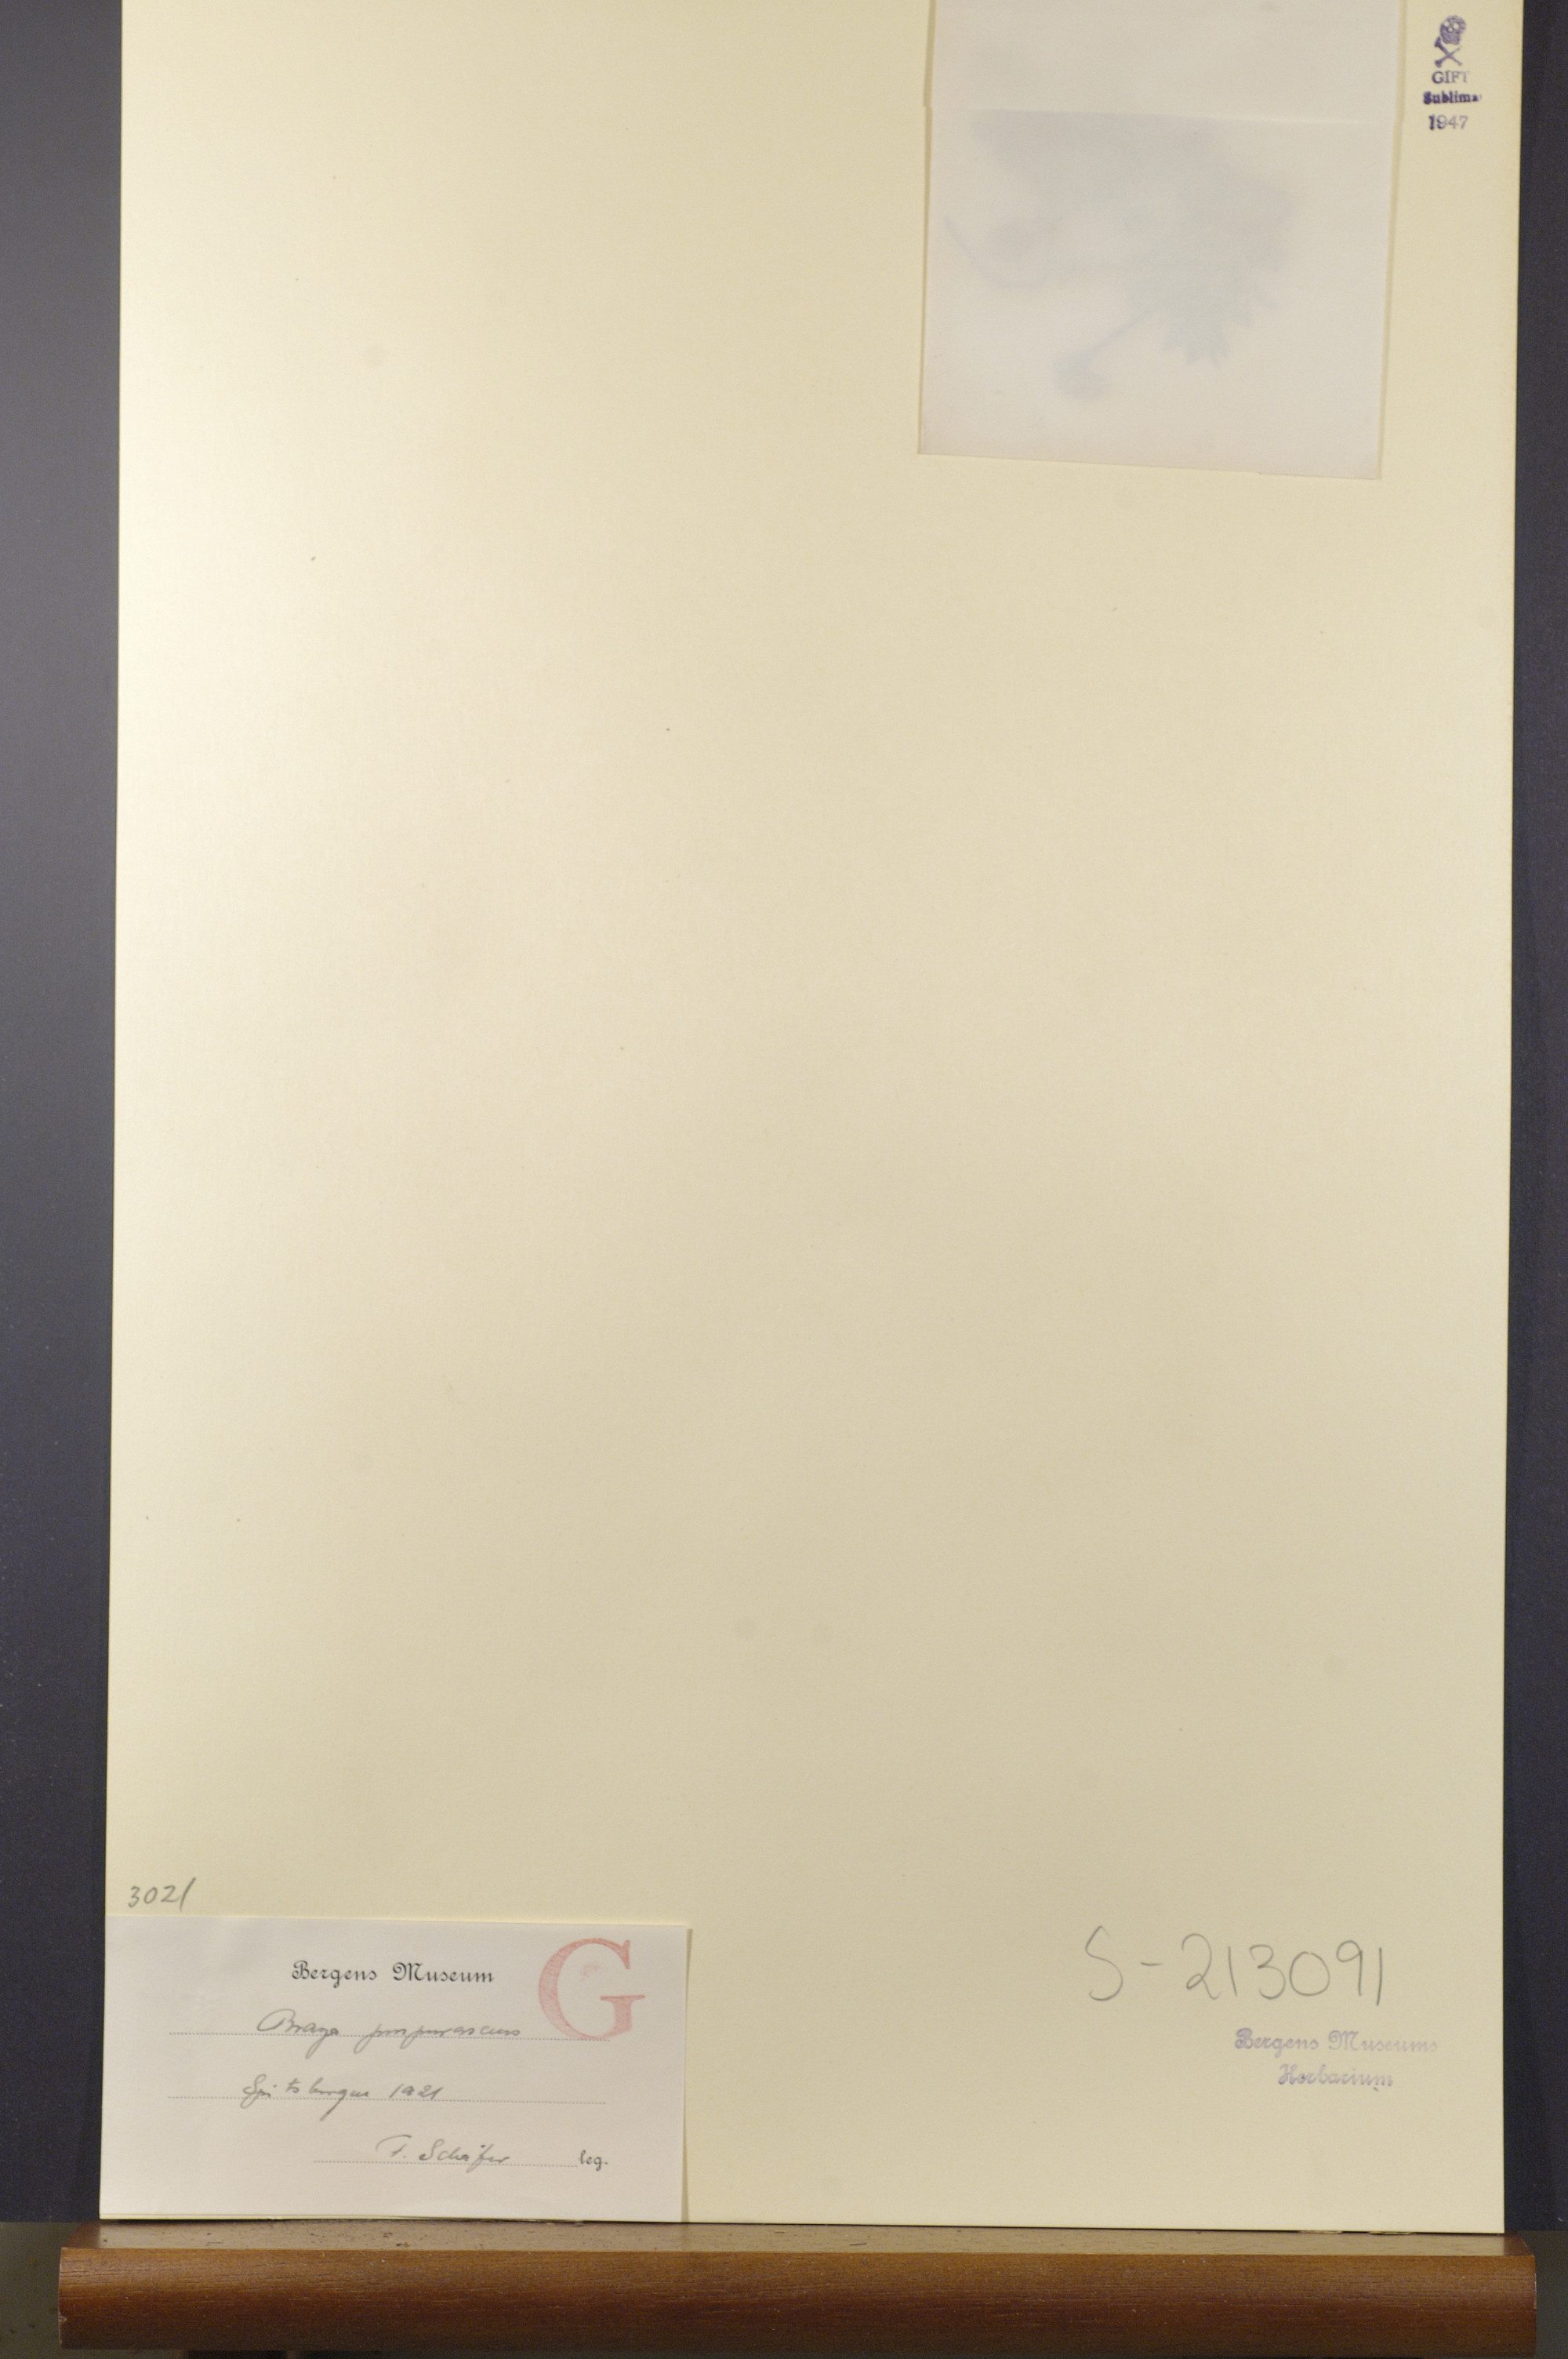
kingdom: Plantae
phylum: Tracheophyta
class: Magnoliopsida
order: Brassicales
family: Brassicaceae
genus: Braya
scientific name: Braya purpurascens
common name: Alpine braya
